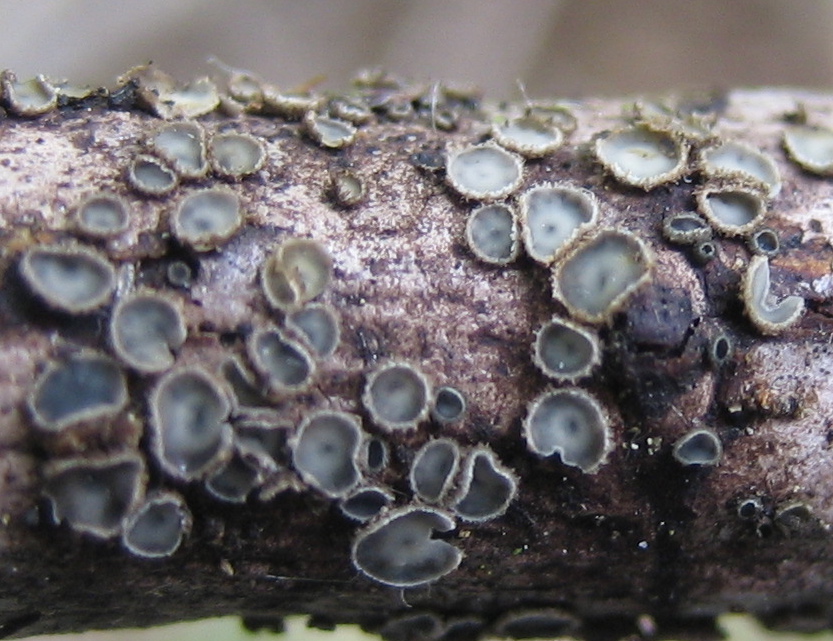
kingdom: Fungi
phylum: Ascomycota
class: Leotiomycetes
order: Helotiales
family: Mollisiaceae
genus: Mollisia
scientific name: Mollisia rosae
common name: rose-gråskive
